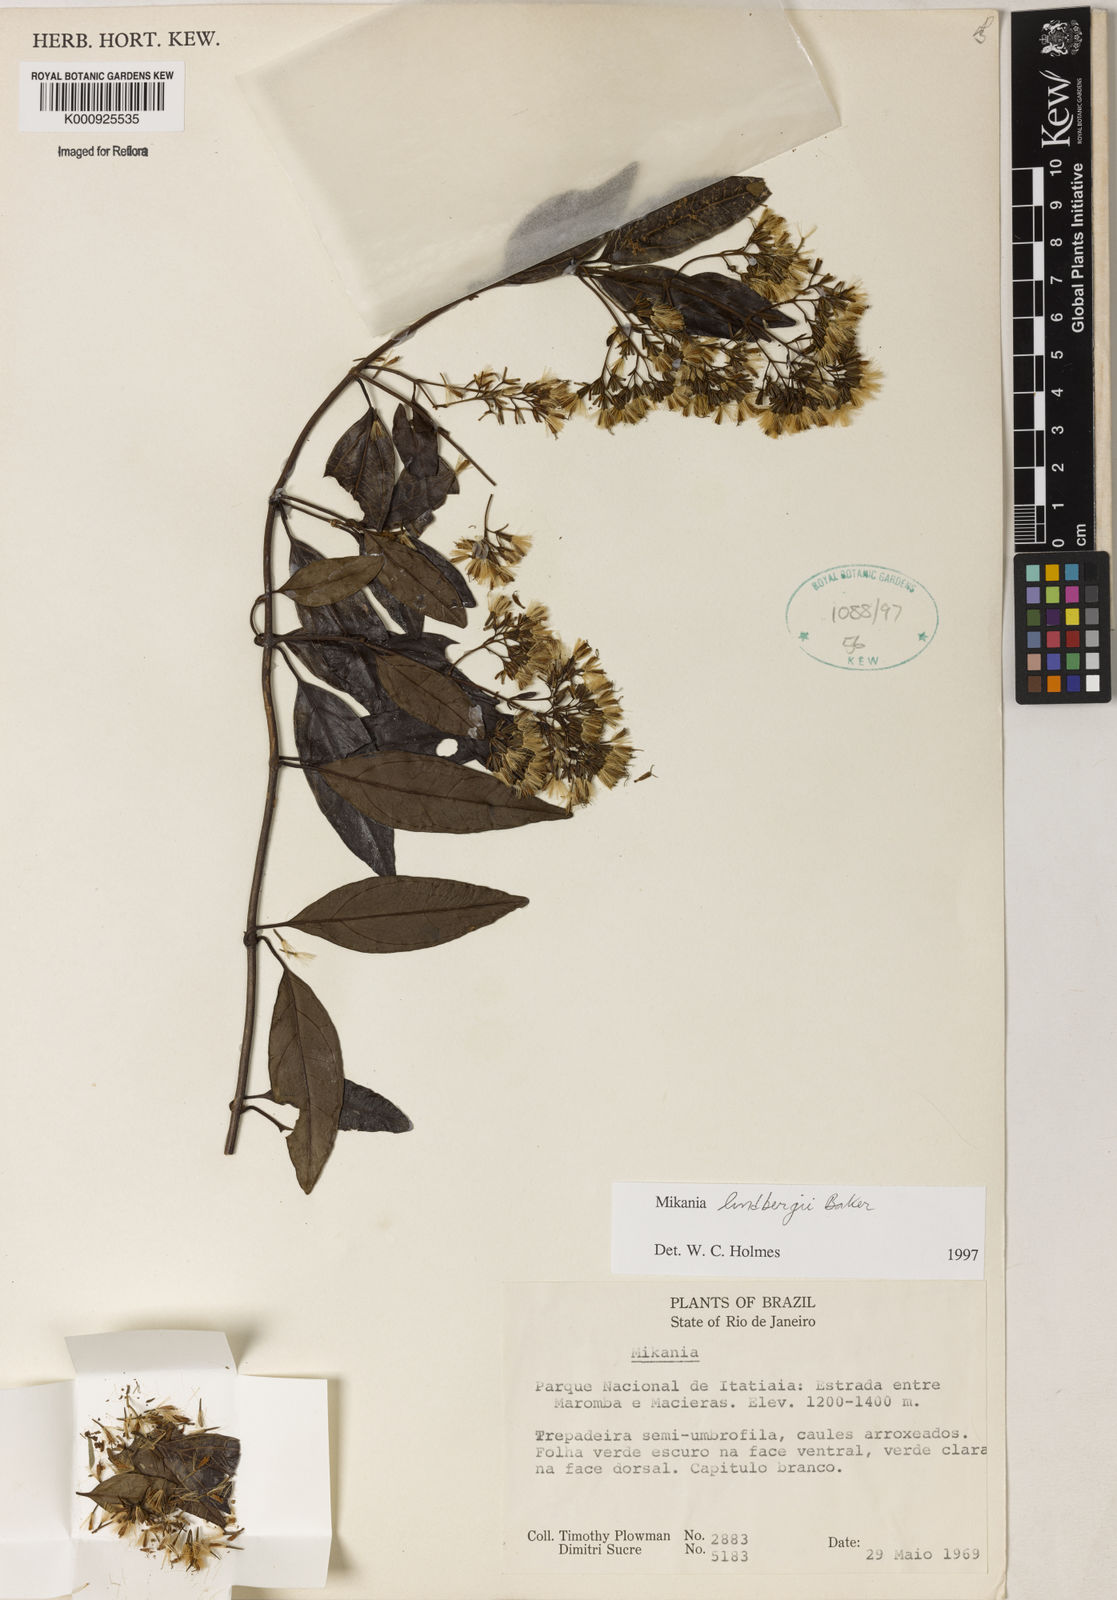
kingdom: Plantae
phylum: Tracheophyta
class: Magnoliopsida
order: Asterales
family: Asteraceae
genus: Mikania
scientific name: Mikania lindbergii
